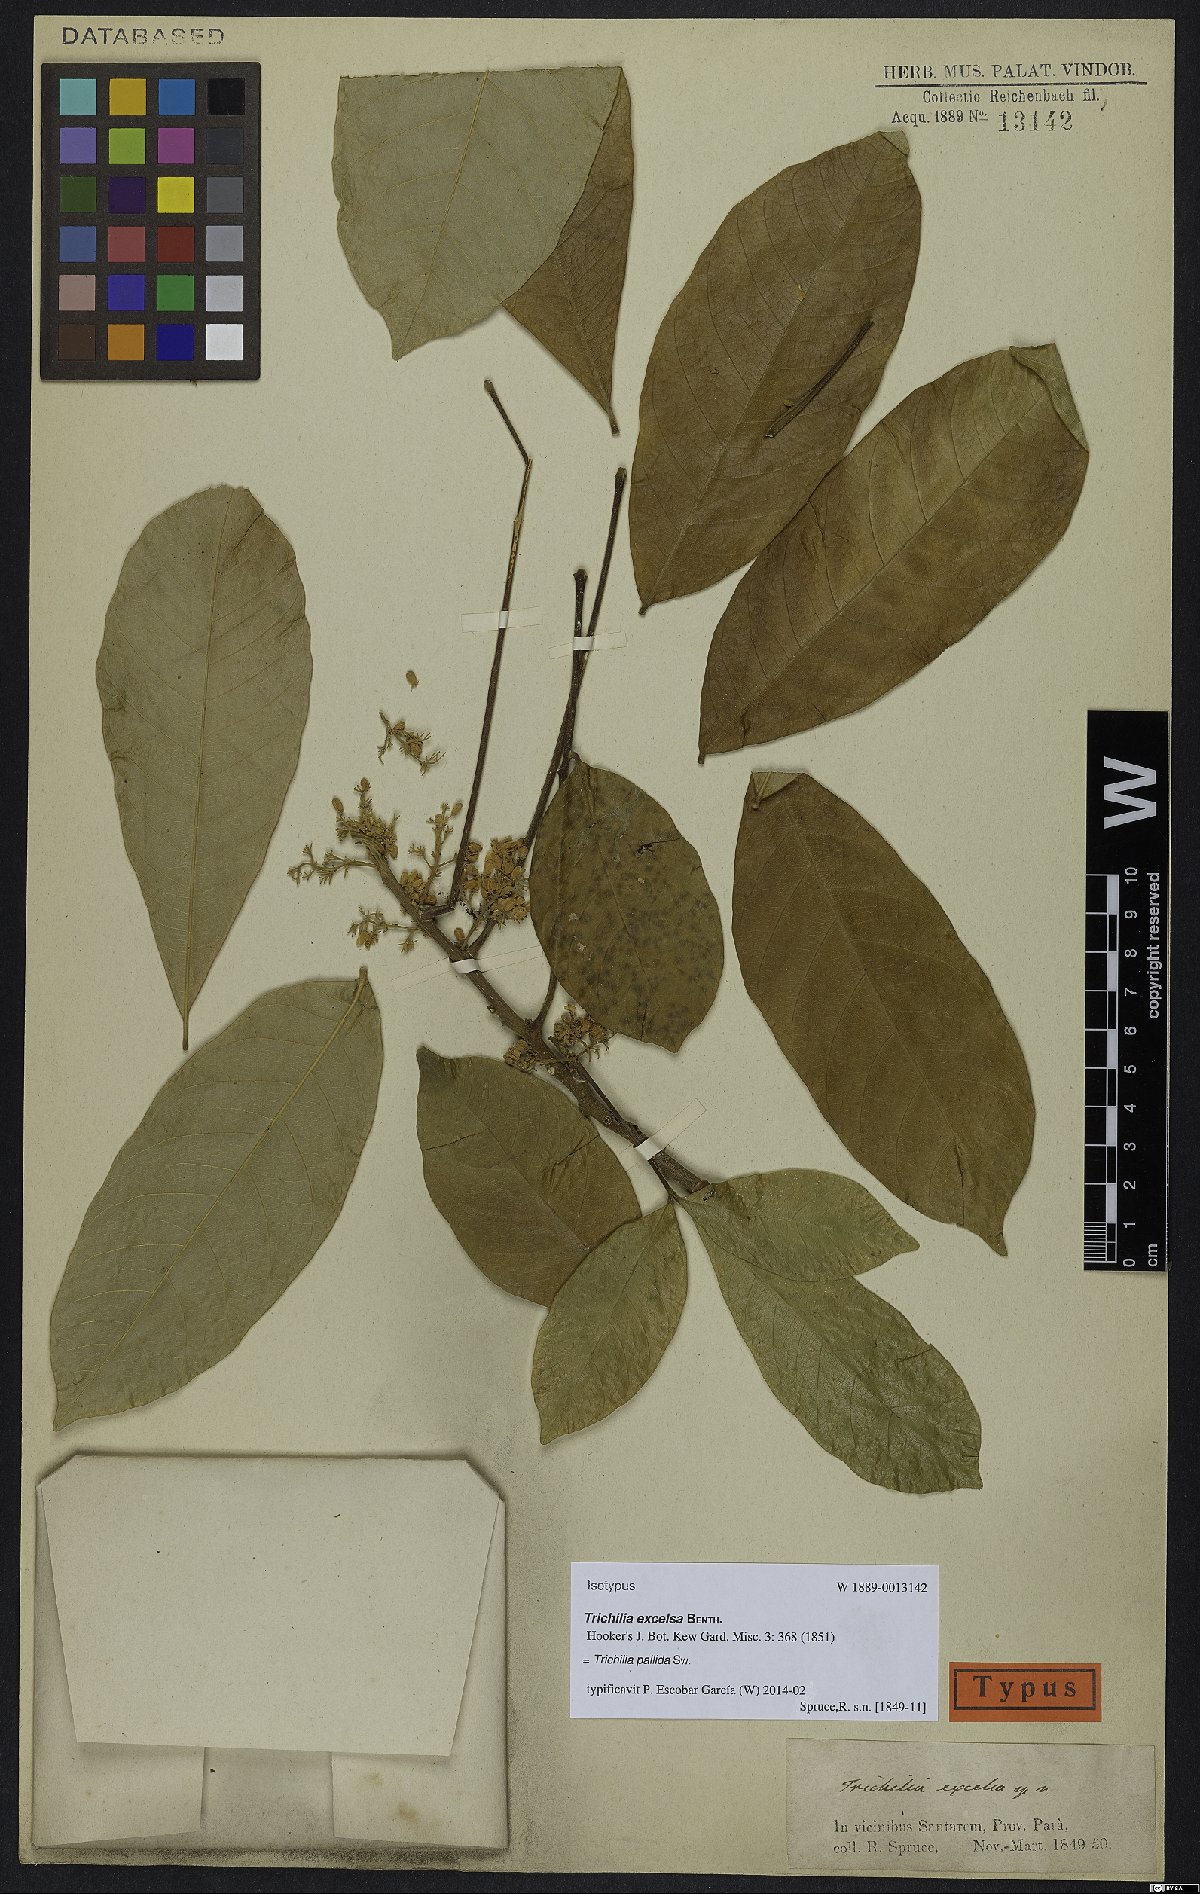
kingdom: Plantae
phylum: Tracheophyta
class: Magnoliopsida
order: Sapindales
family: Meliaceae
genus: Trichilia
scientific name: Trichilia pallida
